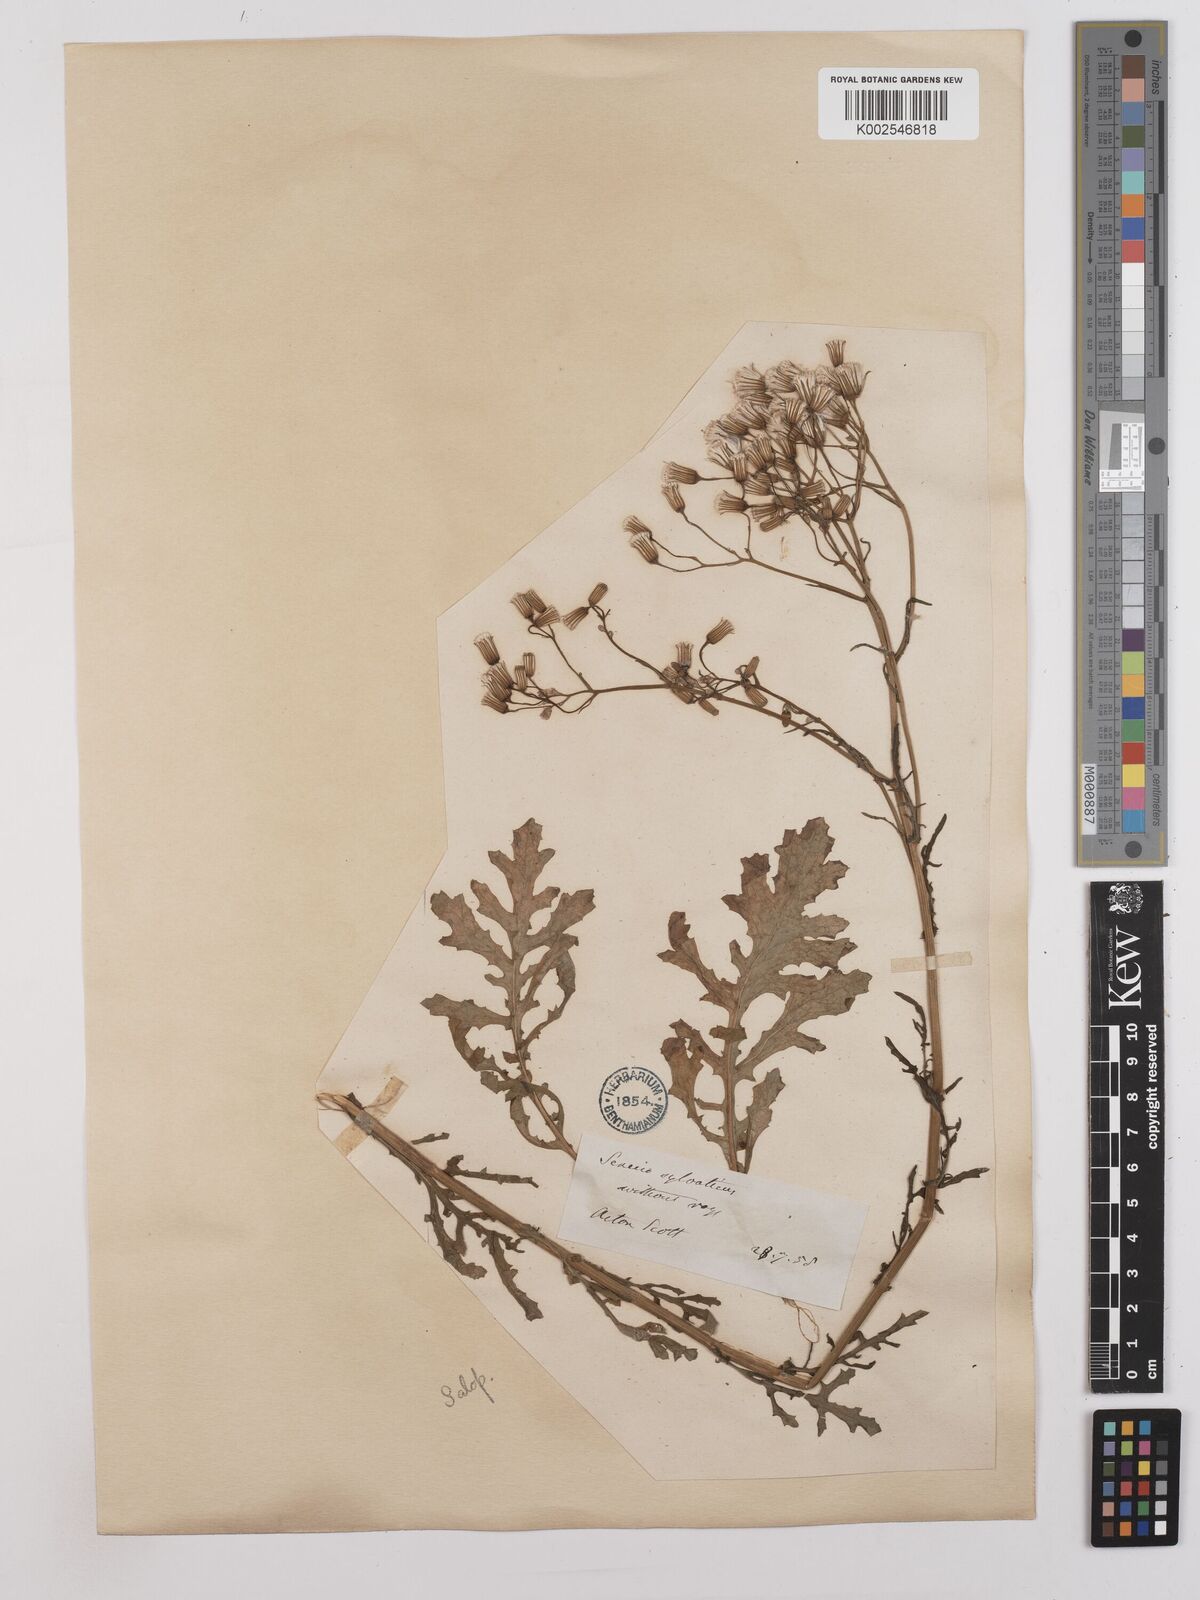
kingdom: Plantae
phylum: Tracheophyta
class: Magnoliopsida
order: Asterales
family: Asteraceae
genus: Senecio
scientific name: Senecio sylvaticus
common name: Woodland ragwort
